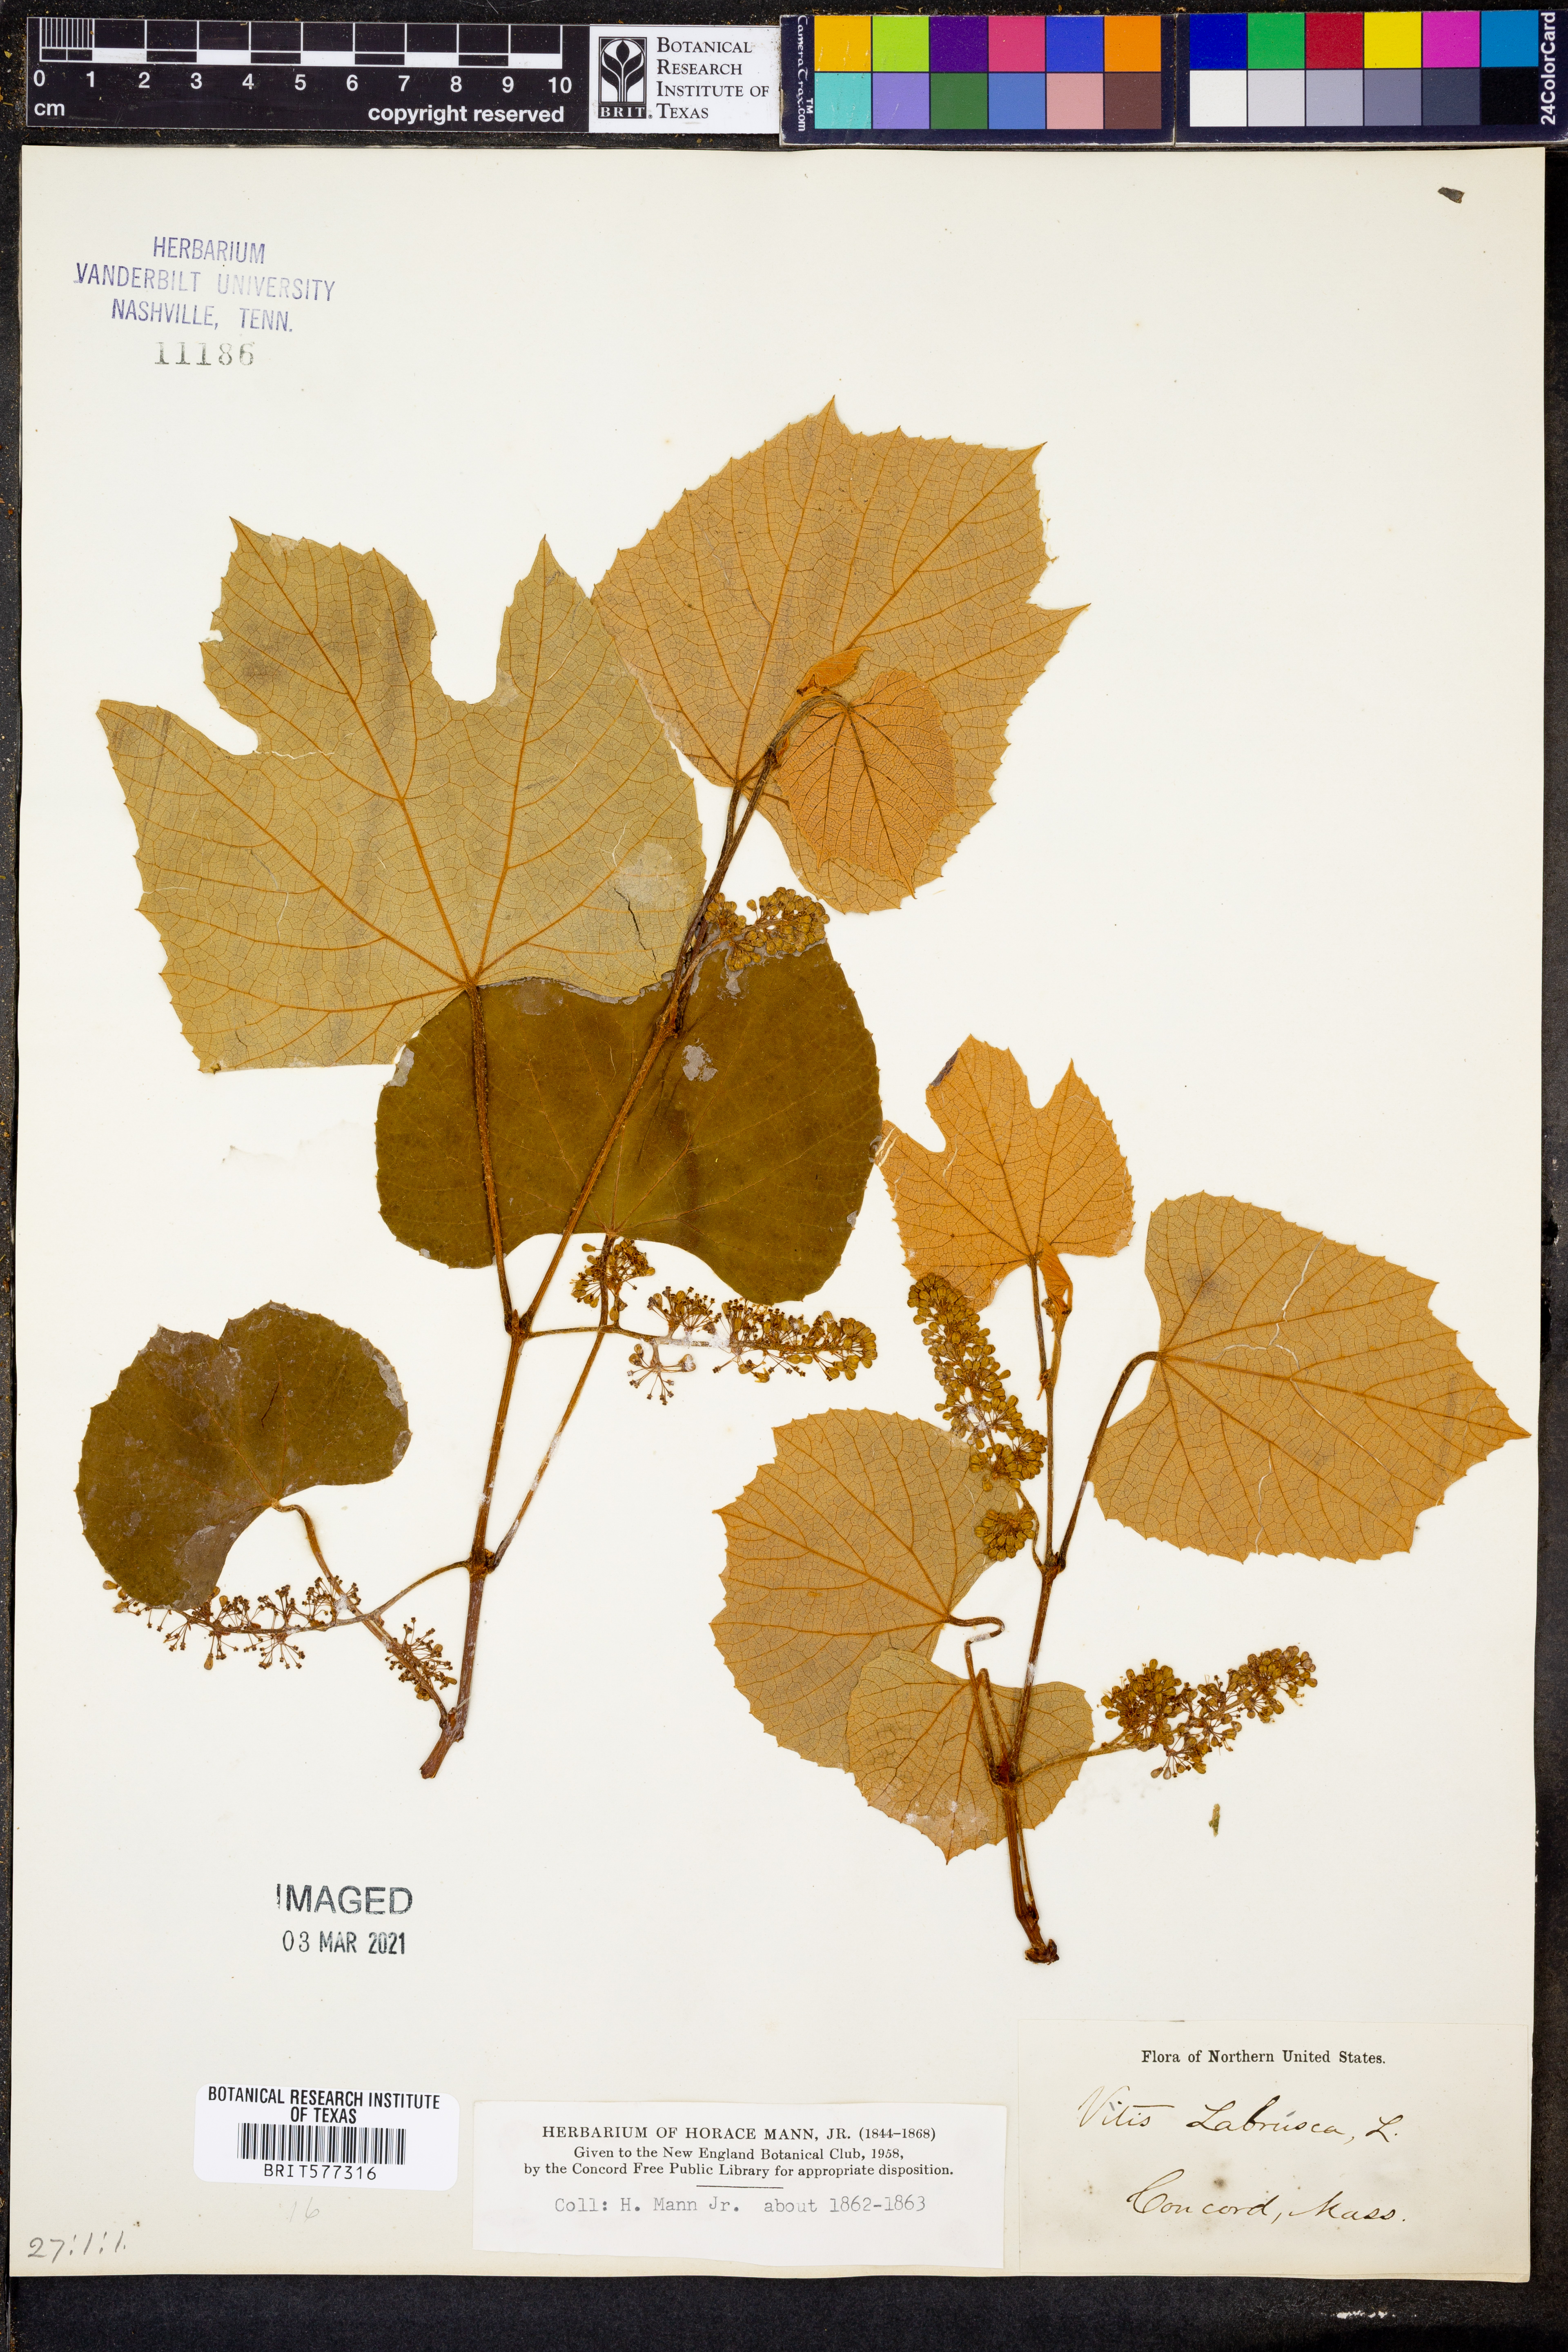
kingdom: Plantae
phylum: Tracheophyta
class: Magnoliopsida
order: Vitales
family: Vitaceae
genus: Vitis
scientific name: Vitis labrusca
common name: Concord grape
